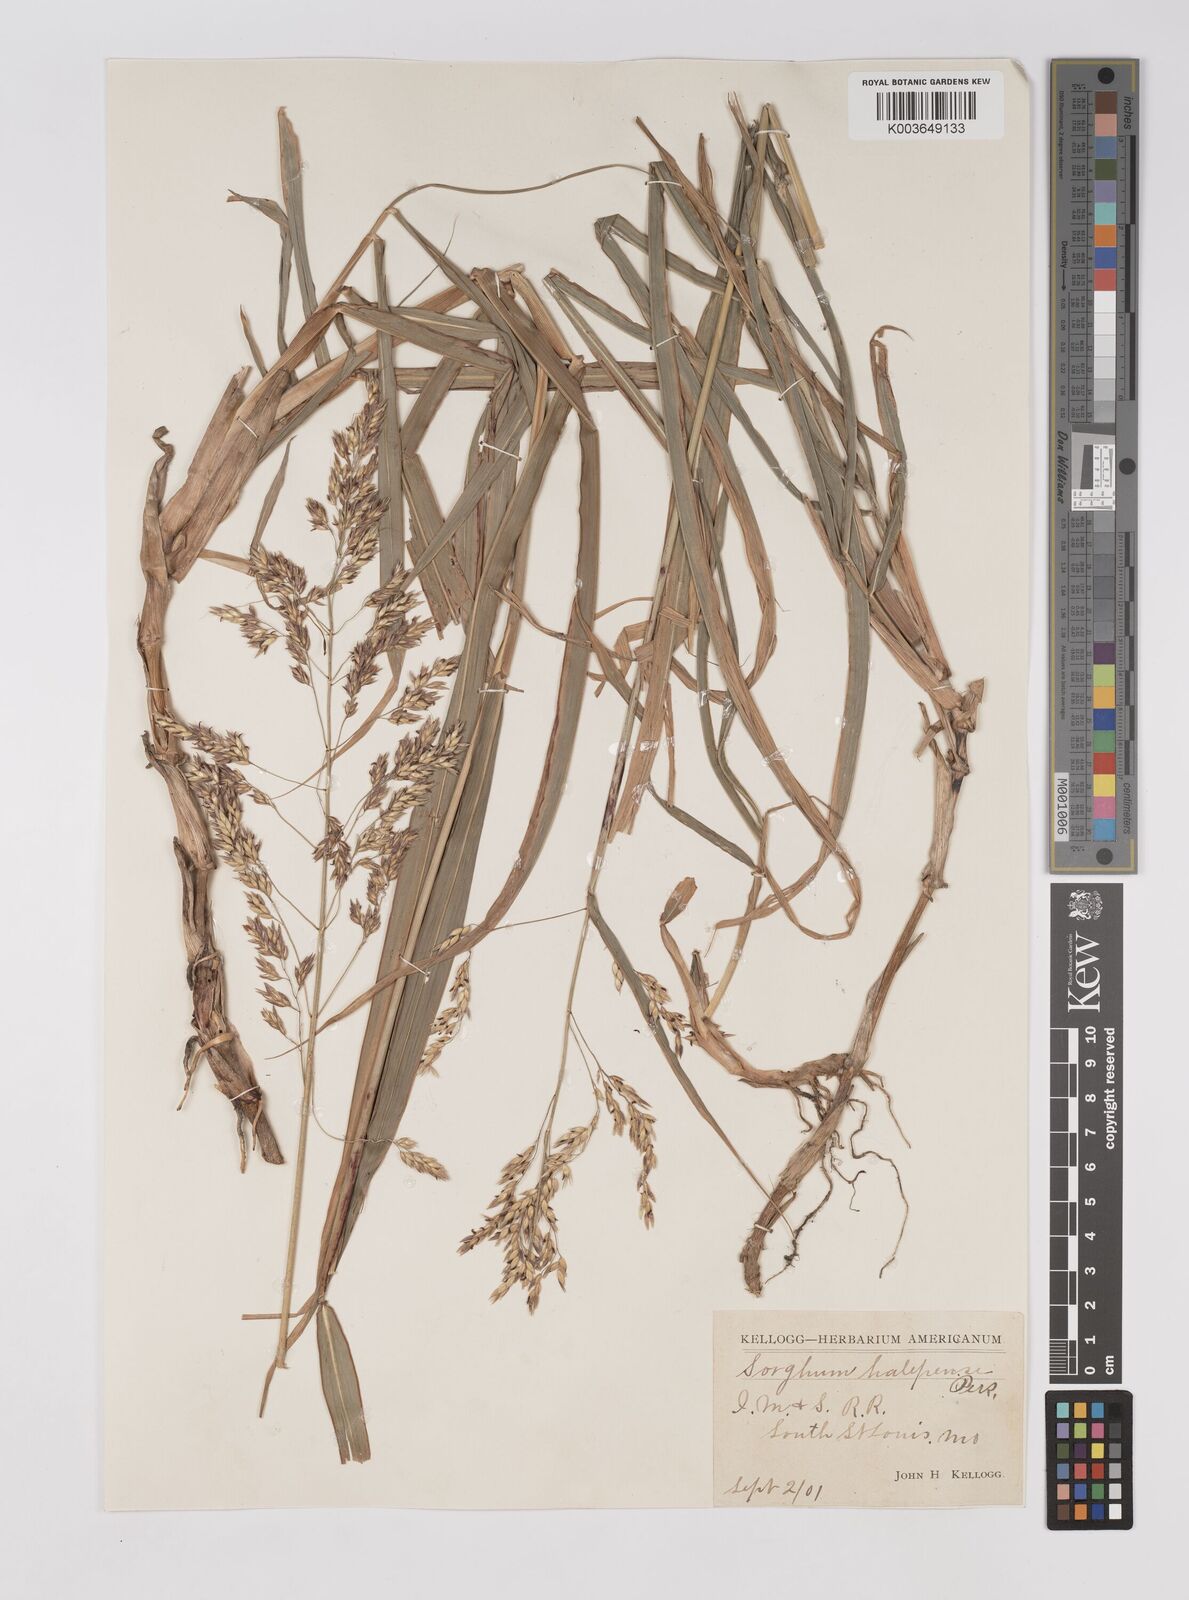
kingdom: Plantae
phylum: Tracheophyta
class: Liliopsida
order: Poales
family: Poaceae
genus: Sorghum
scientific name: Sorghum halepense
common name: Johnson-grass
